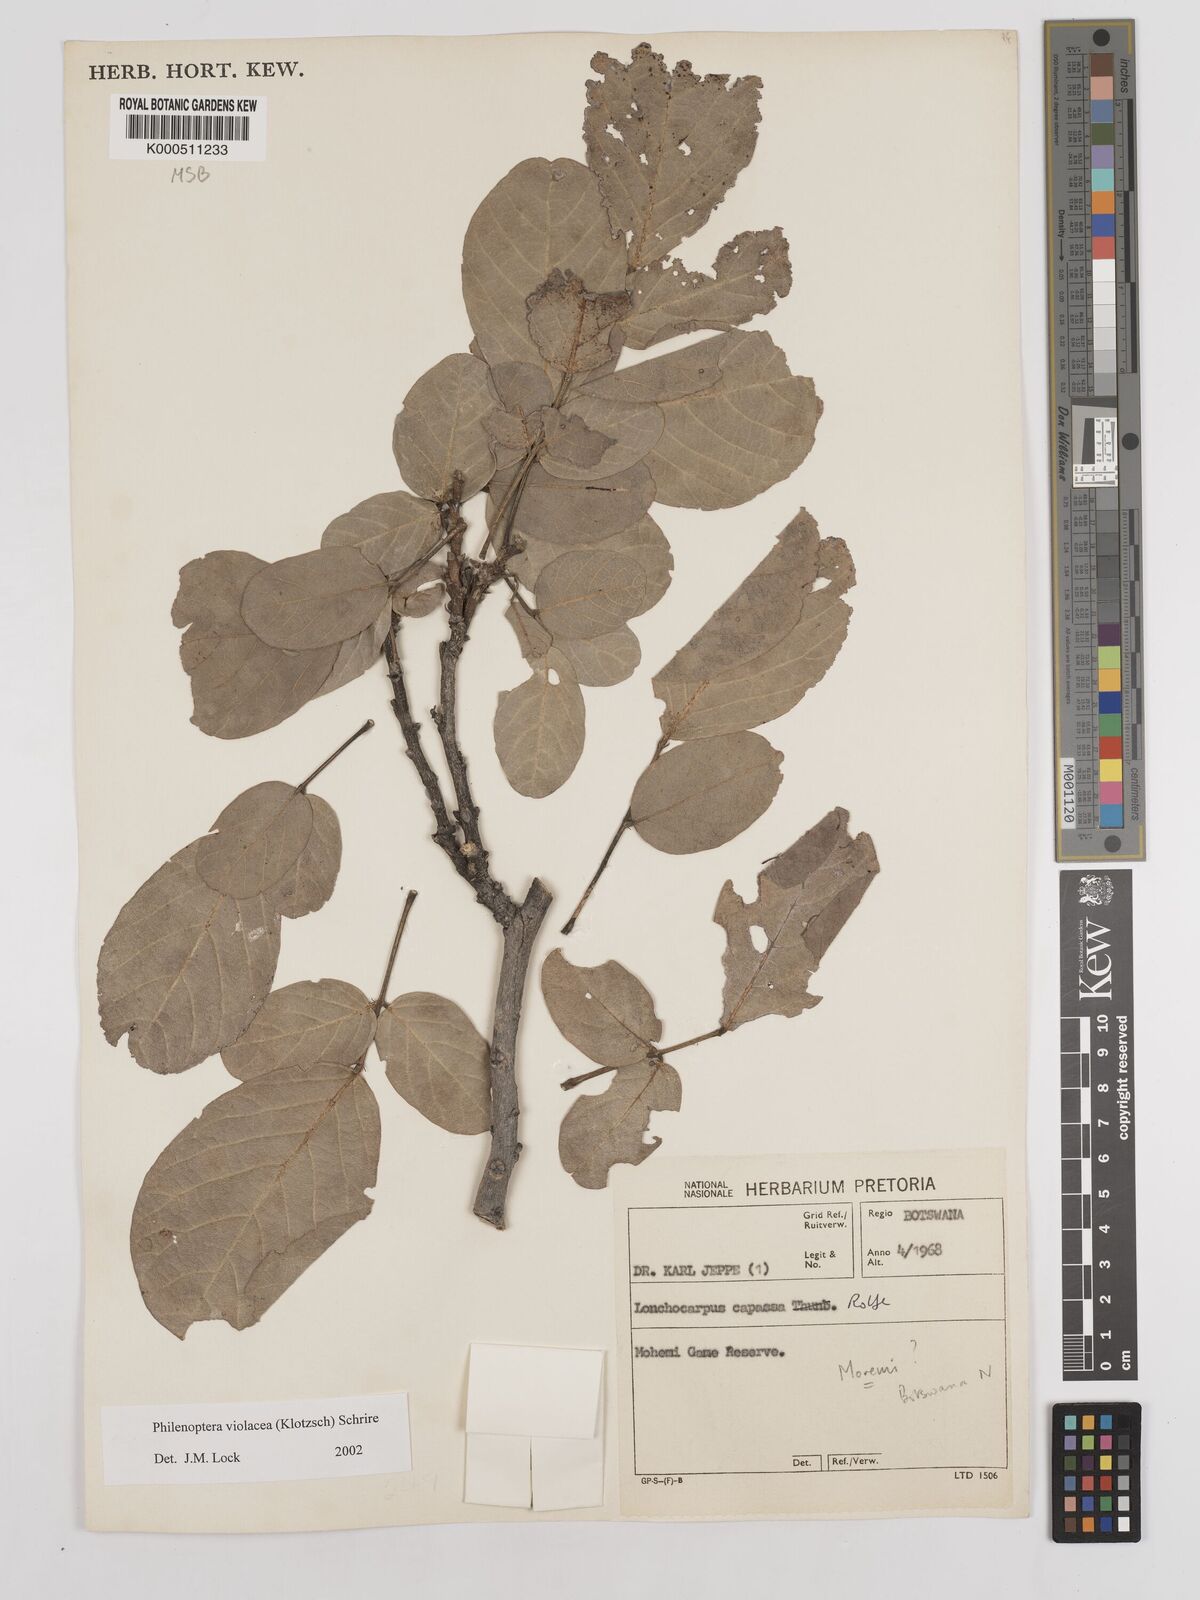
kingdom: Plantae
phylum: Tracheophyta
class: Magnoliopsida
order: Fabales
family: Fabaceae
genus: Philenoptera
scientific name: Philenoptera violacea
